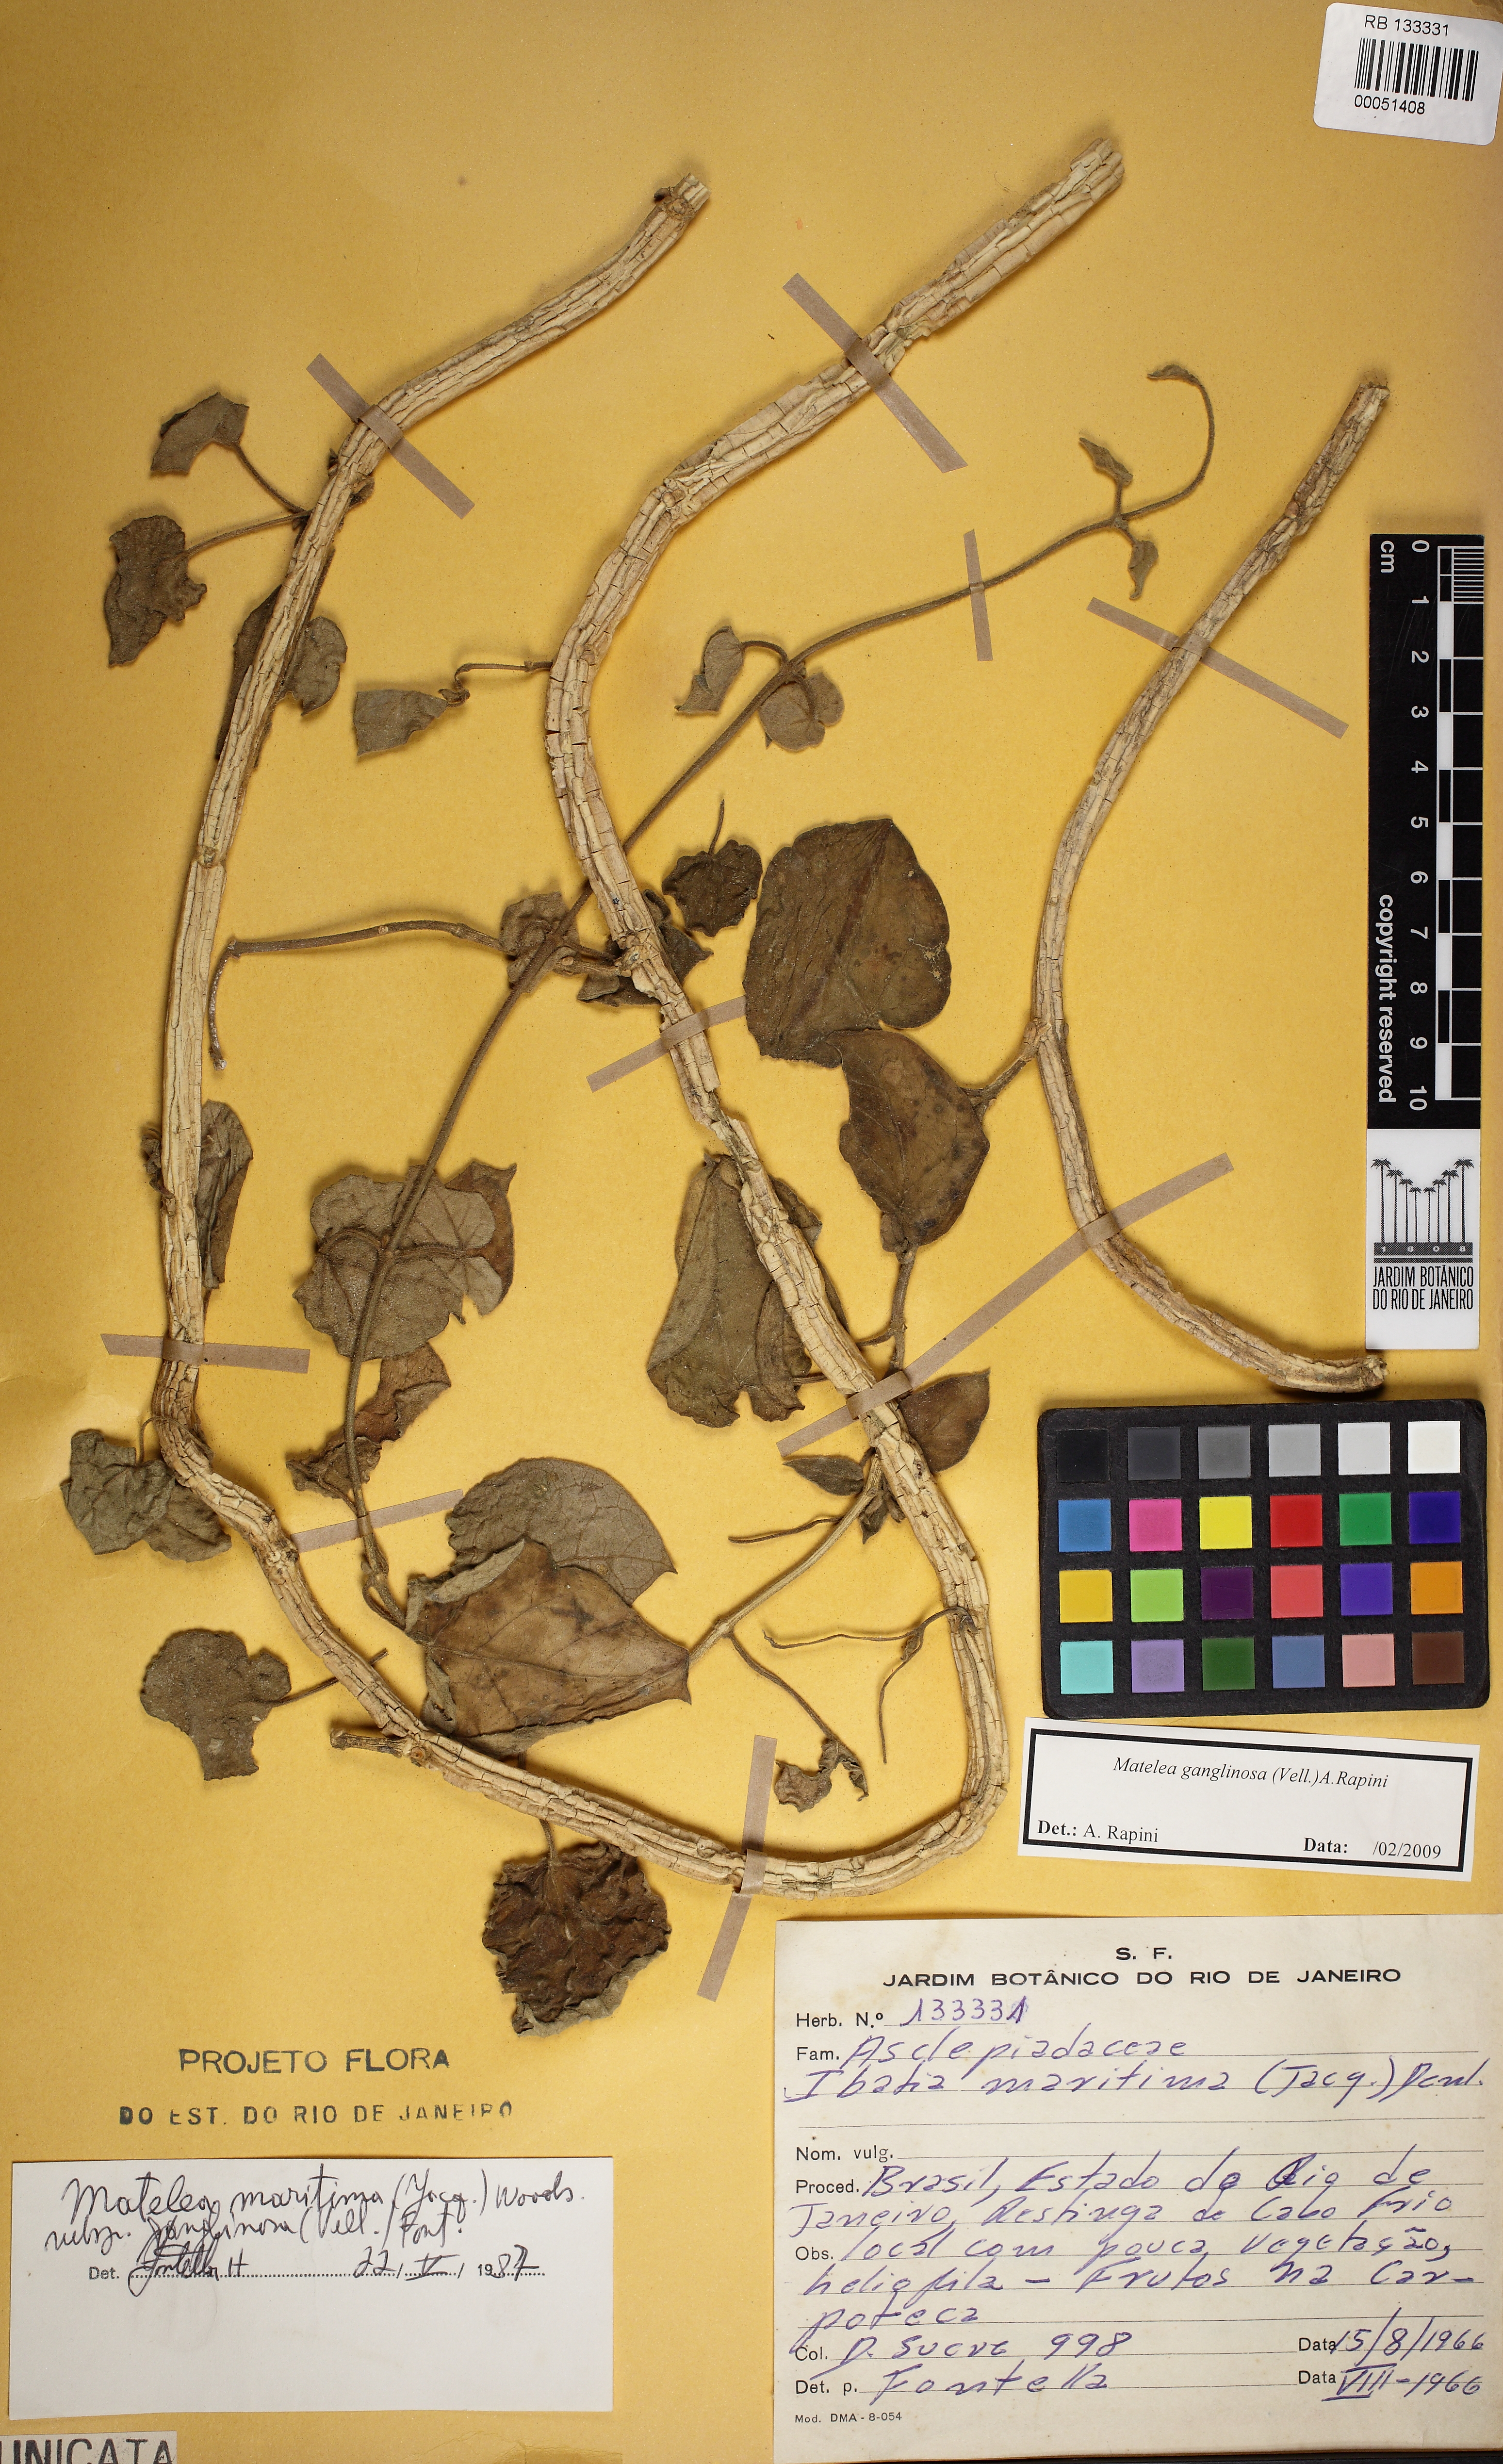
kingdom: Plantae
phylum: Tracheophyta
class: Magnoliopsida
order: Gentianales
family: Apocynaceae
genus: Ibatia
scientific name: Ibatia ganglinosa
